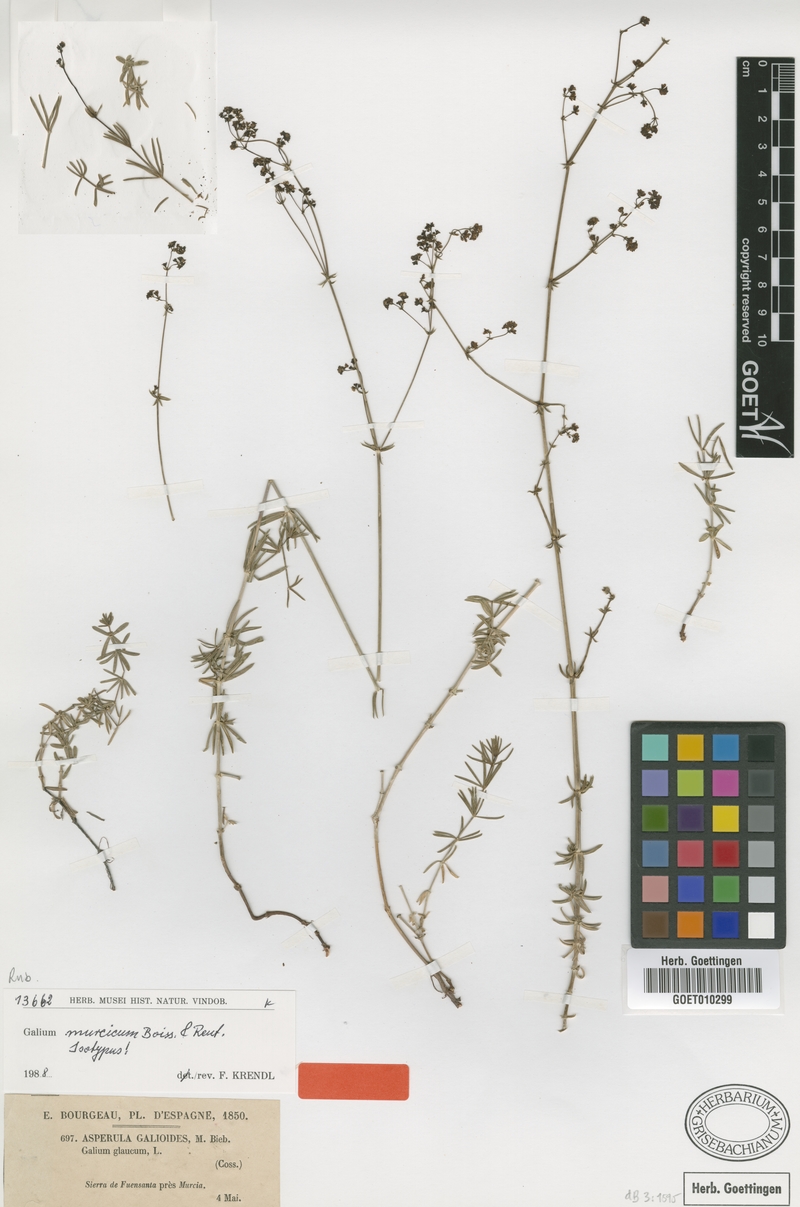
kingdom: Plantae
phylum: Tracheophyta
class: Magnoliopsida
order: Gentianales
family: Rubiaceae
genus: Galium
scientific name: Galium glaucum
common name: Waxy bedstraw
